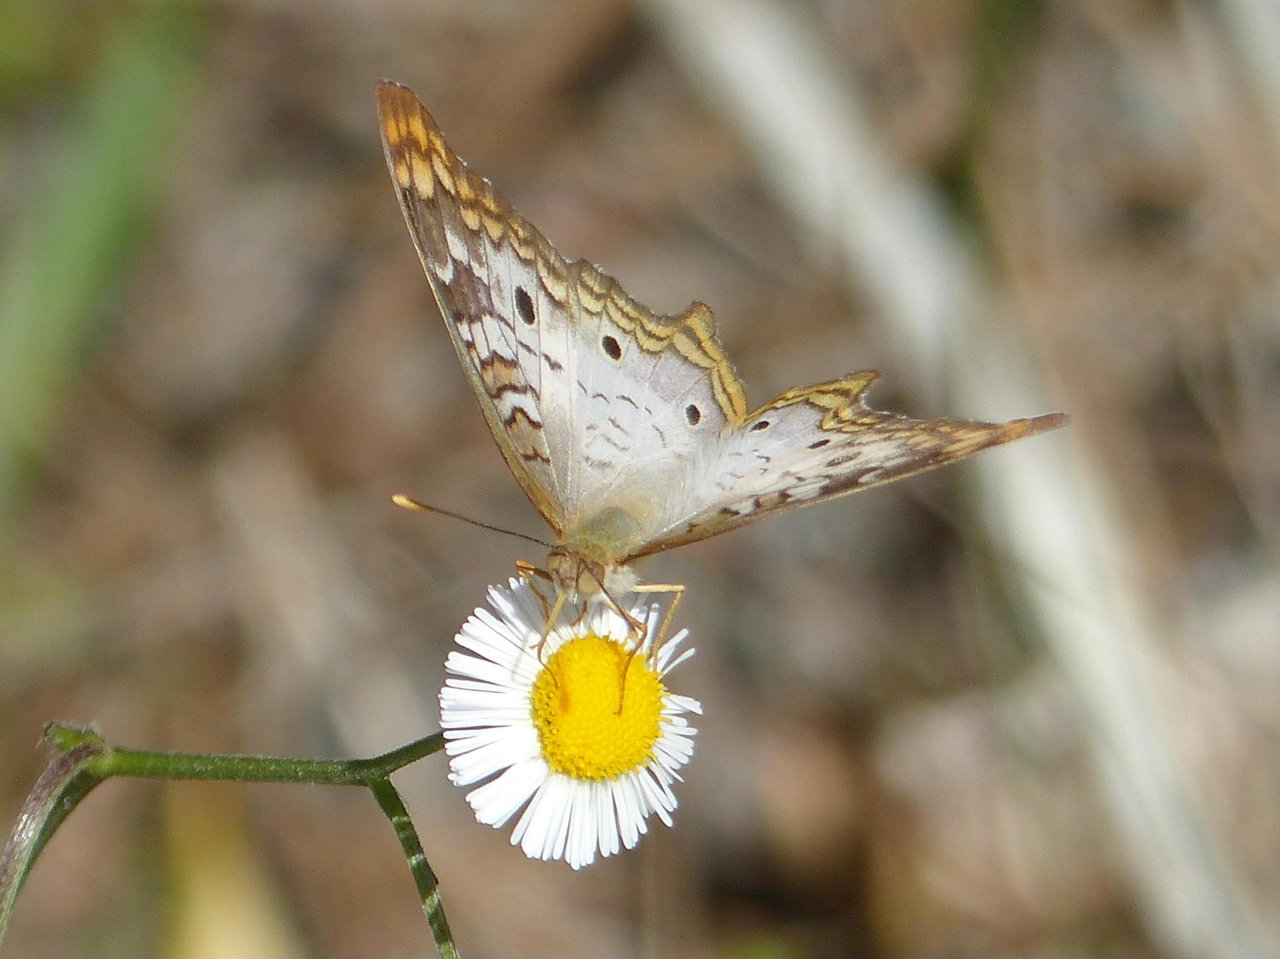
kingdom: Animalia
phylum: Arthropoda
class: Insecta
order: Lepidoptera
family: Nymphalidae
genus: Anartia
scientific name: Anartia jatrophae
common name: White Peacock
